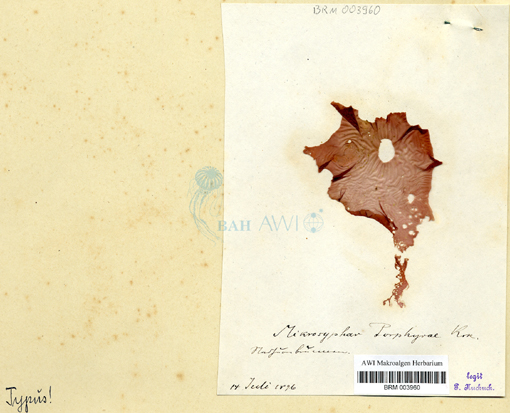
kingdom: Chromista
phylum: Ochrophyta
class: Phaeophyceae
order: Ectocarpales
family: Chordariaceae
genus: Mikrosyphar
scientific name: Mikrosyphar porphyrae
